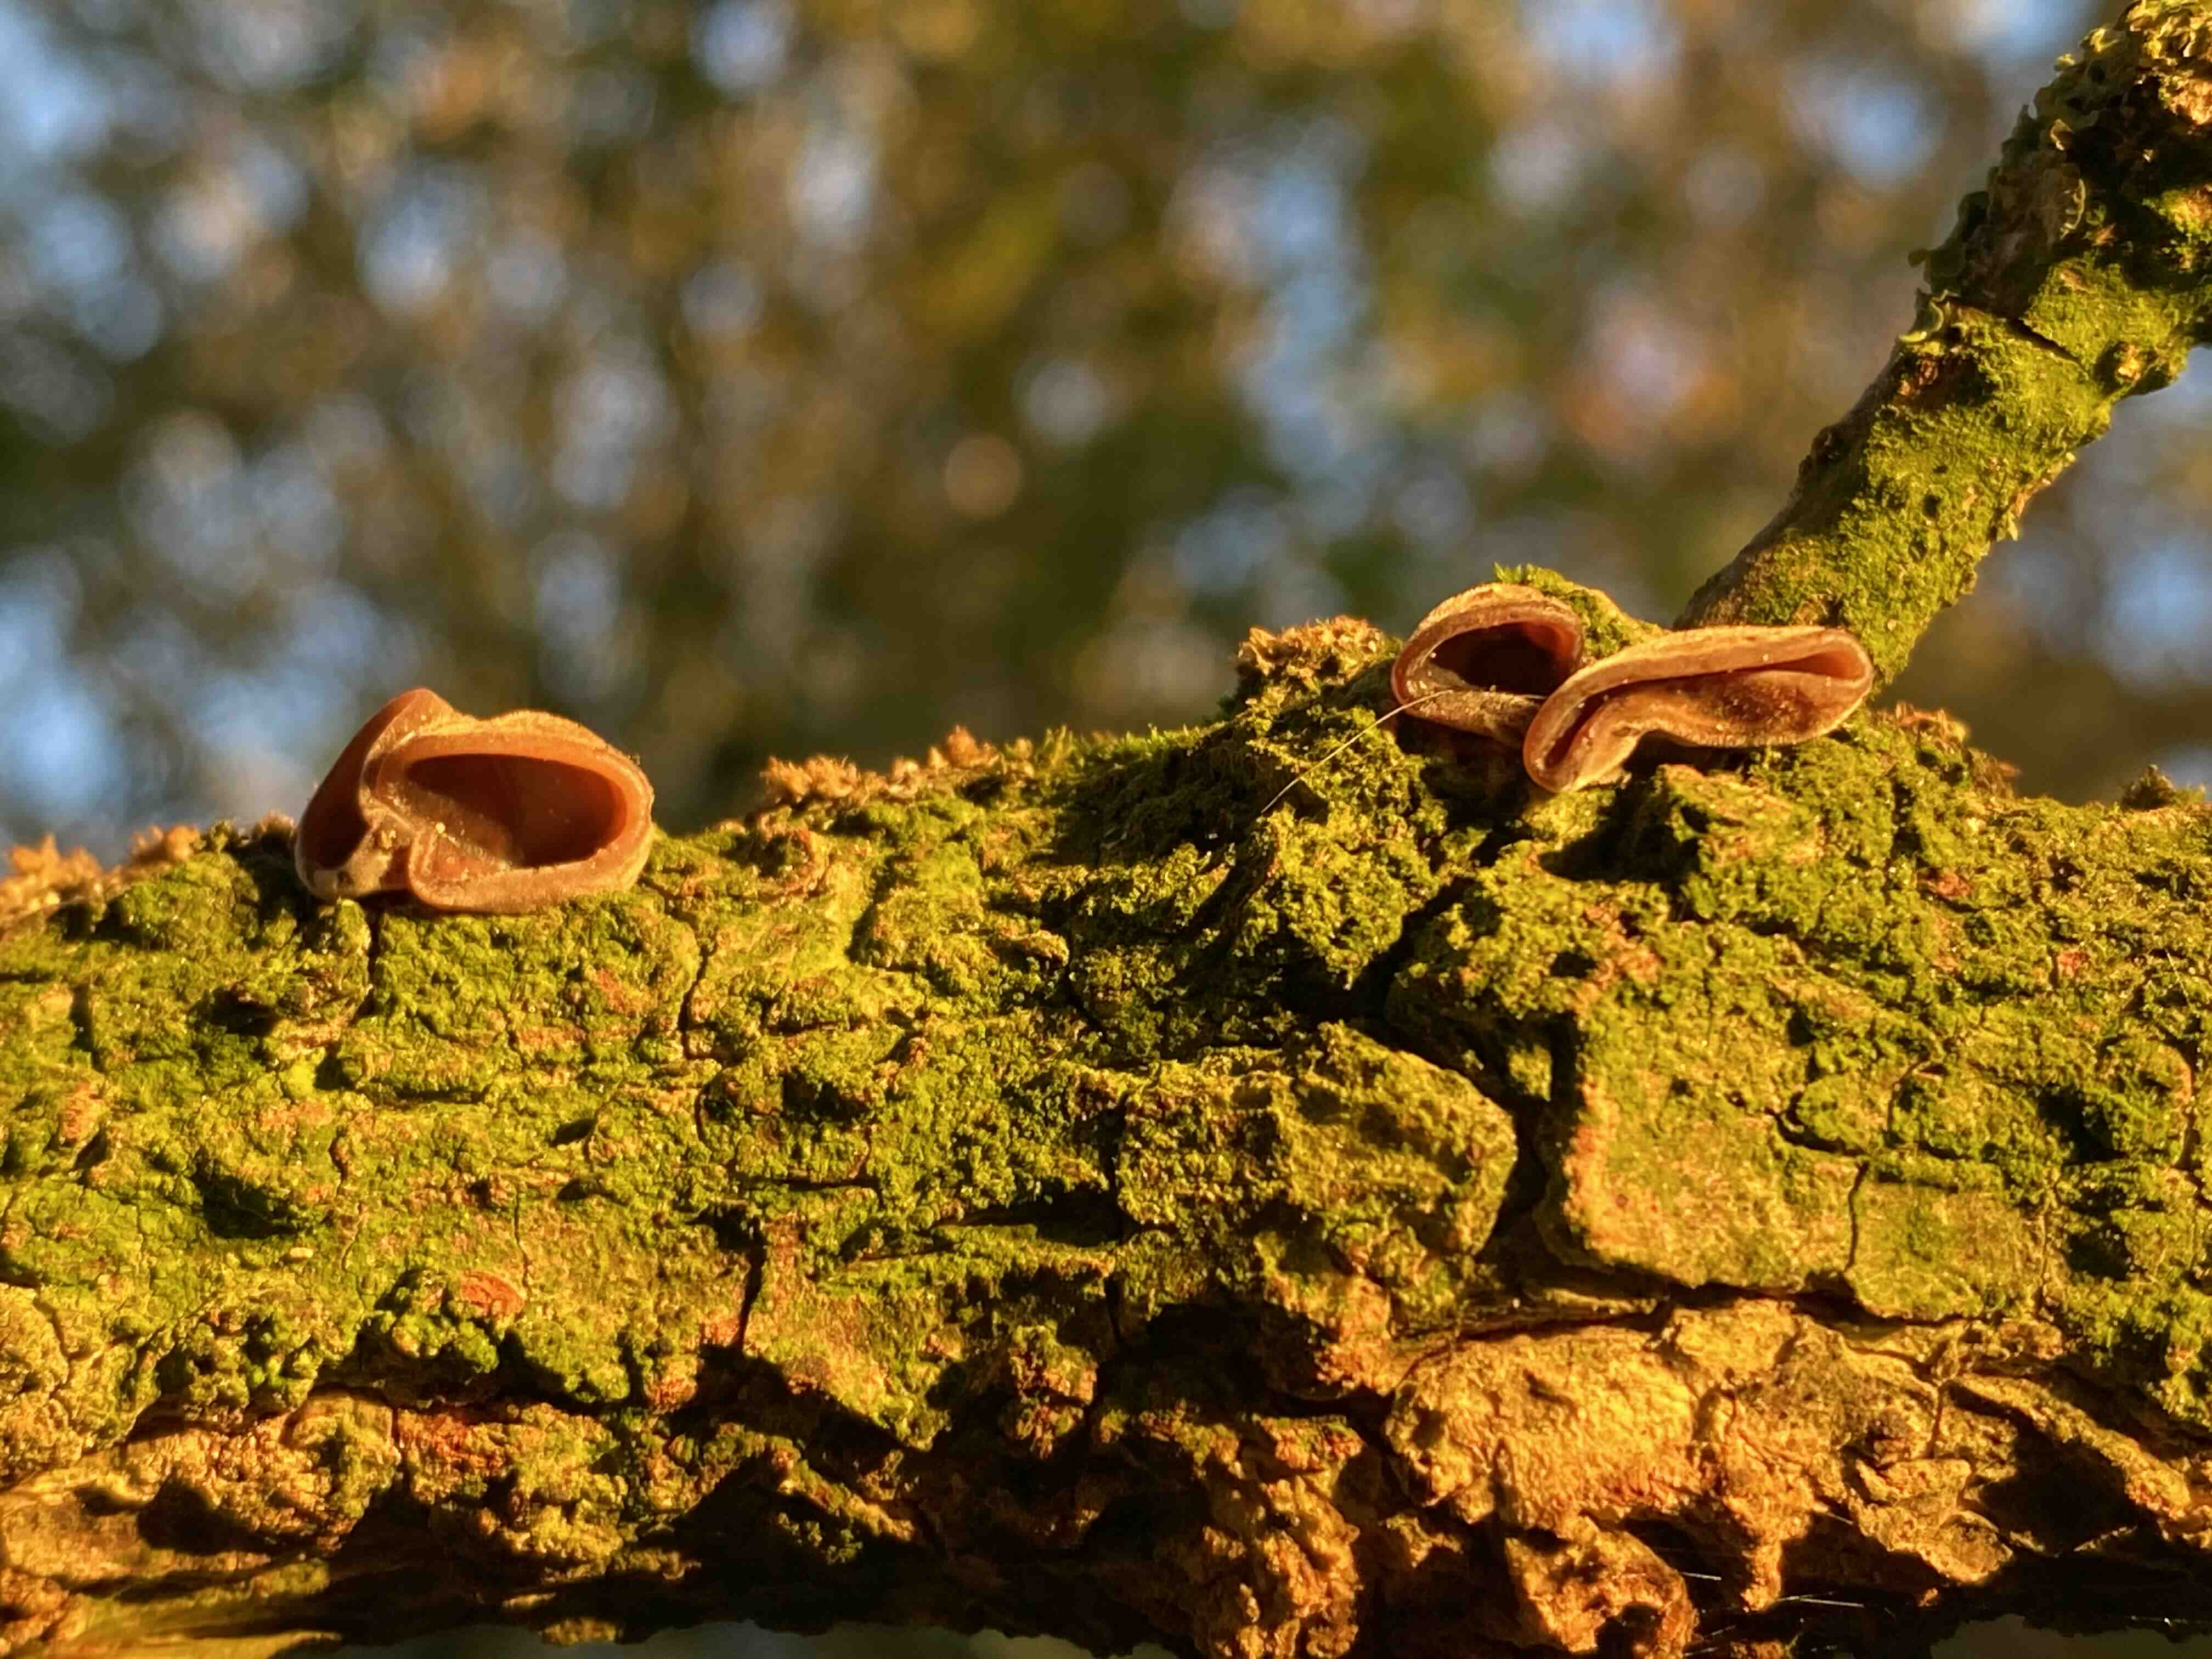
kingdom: Fungi
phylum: Basidiomycota
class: Agaricomycetes
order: Auriculariales
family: Auriculariaceae
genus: Auricularia
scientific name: Auricularia auricula-judae
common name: almindelig judasøre
